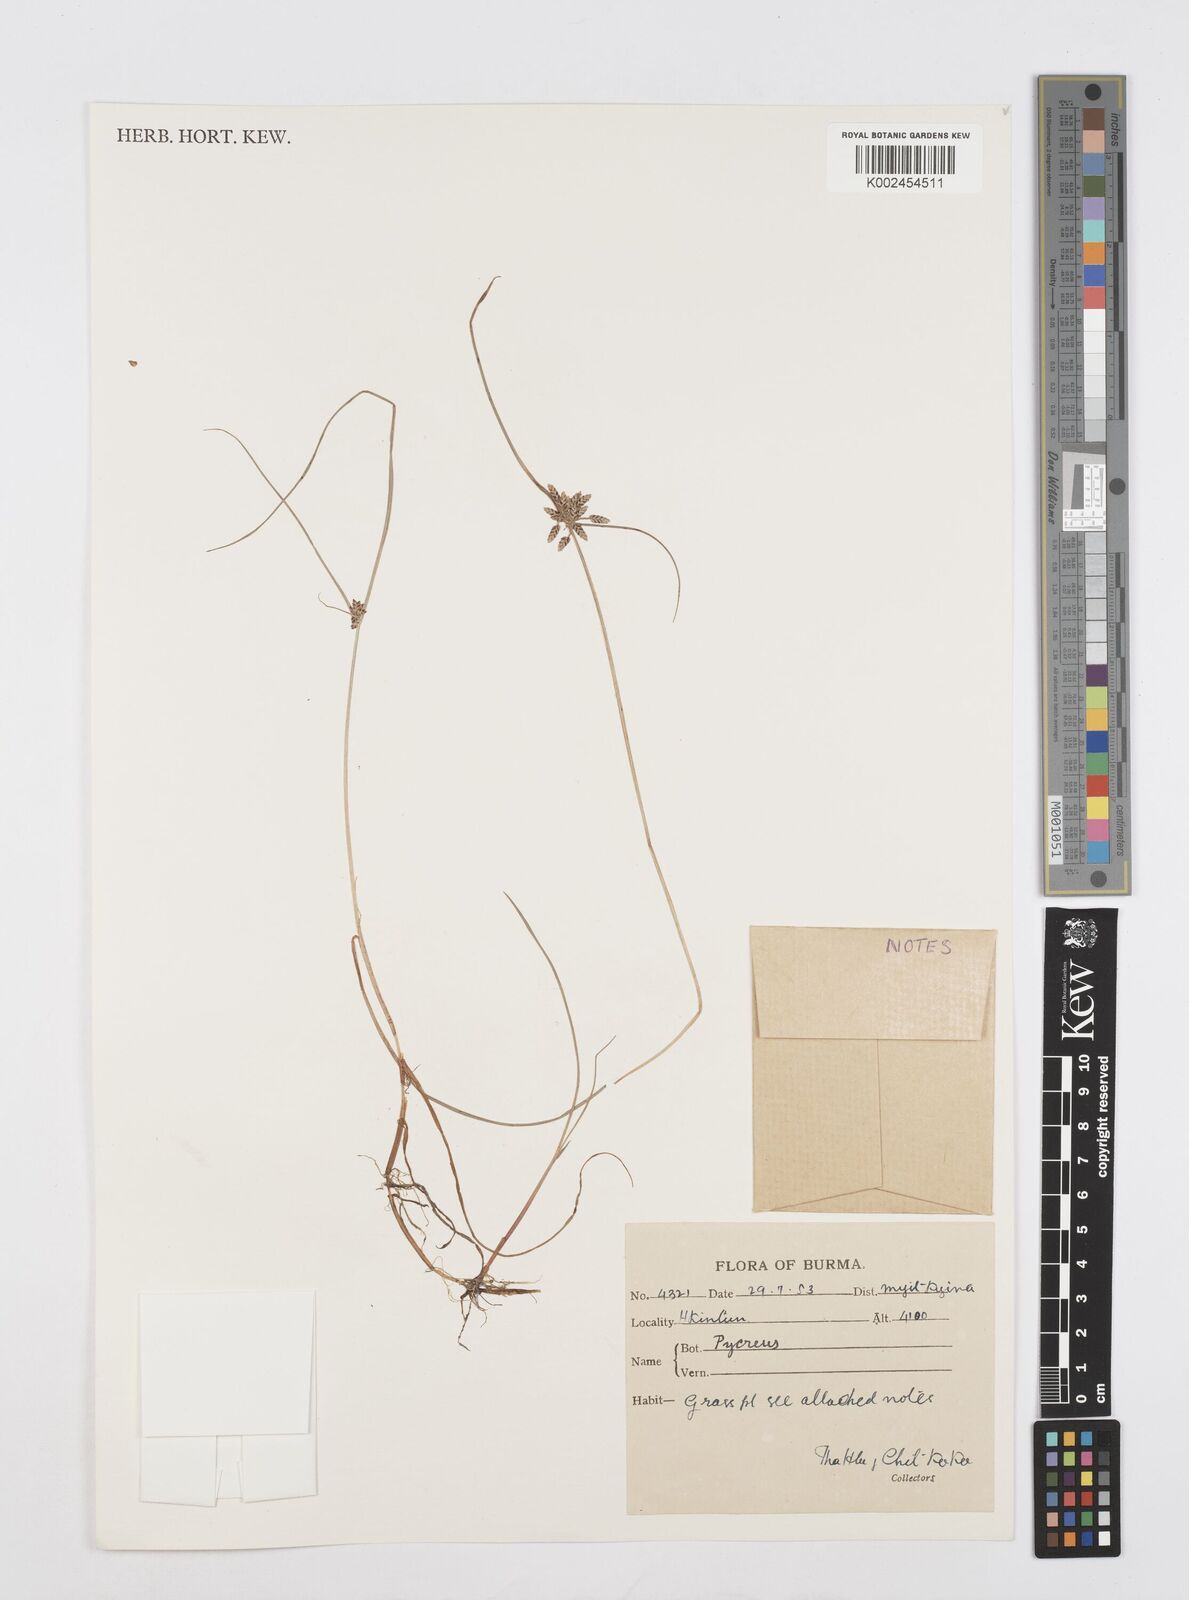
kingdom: Plantae
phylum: Tracheophyta
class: Liliopsida
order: Poales
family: Cyperaceae
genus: Cyperus
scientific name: Cyperus
